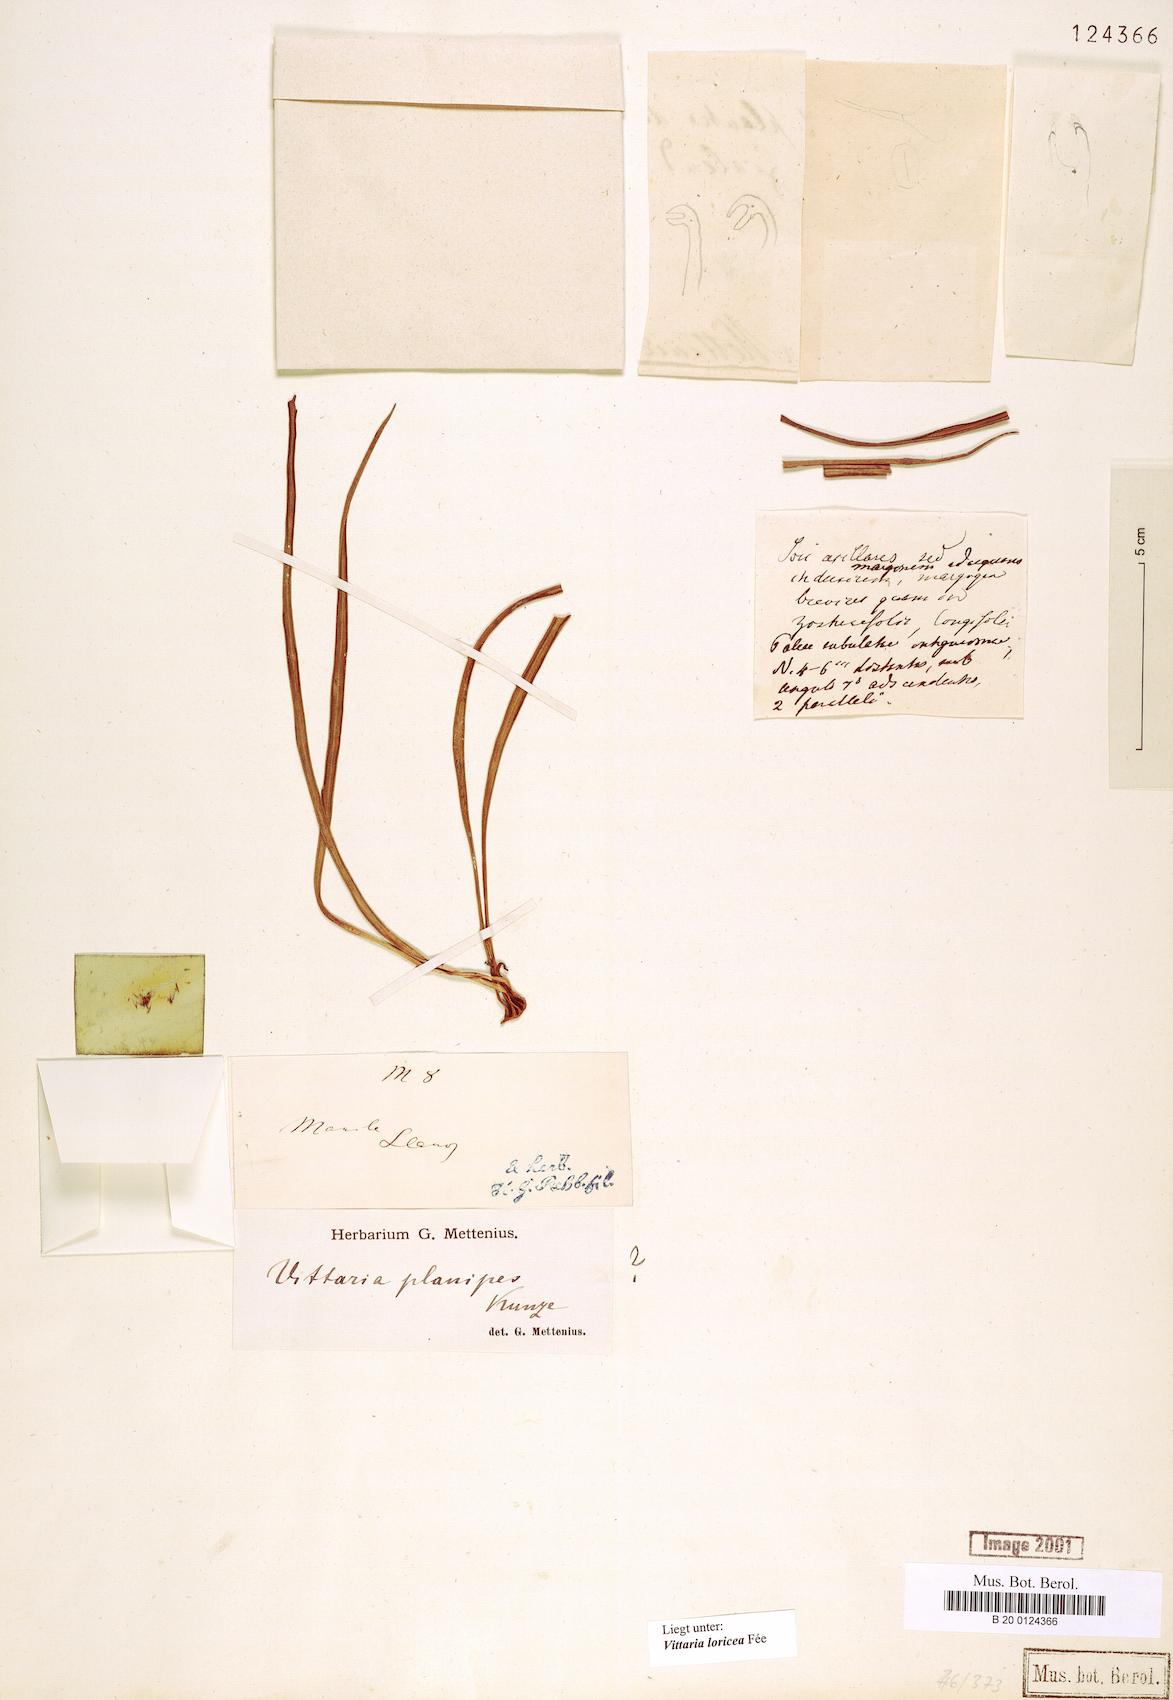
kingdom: Plantae
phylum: Tracheophyta
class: Polypodiopsida
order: Polypodiales
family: Pteridaceae
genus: Haplopteris
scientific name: Haplopteris zosterifolia
